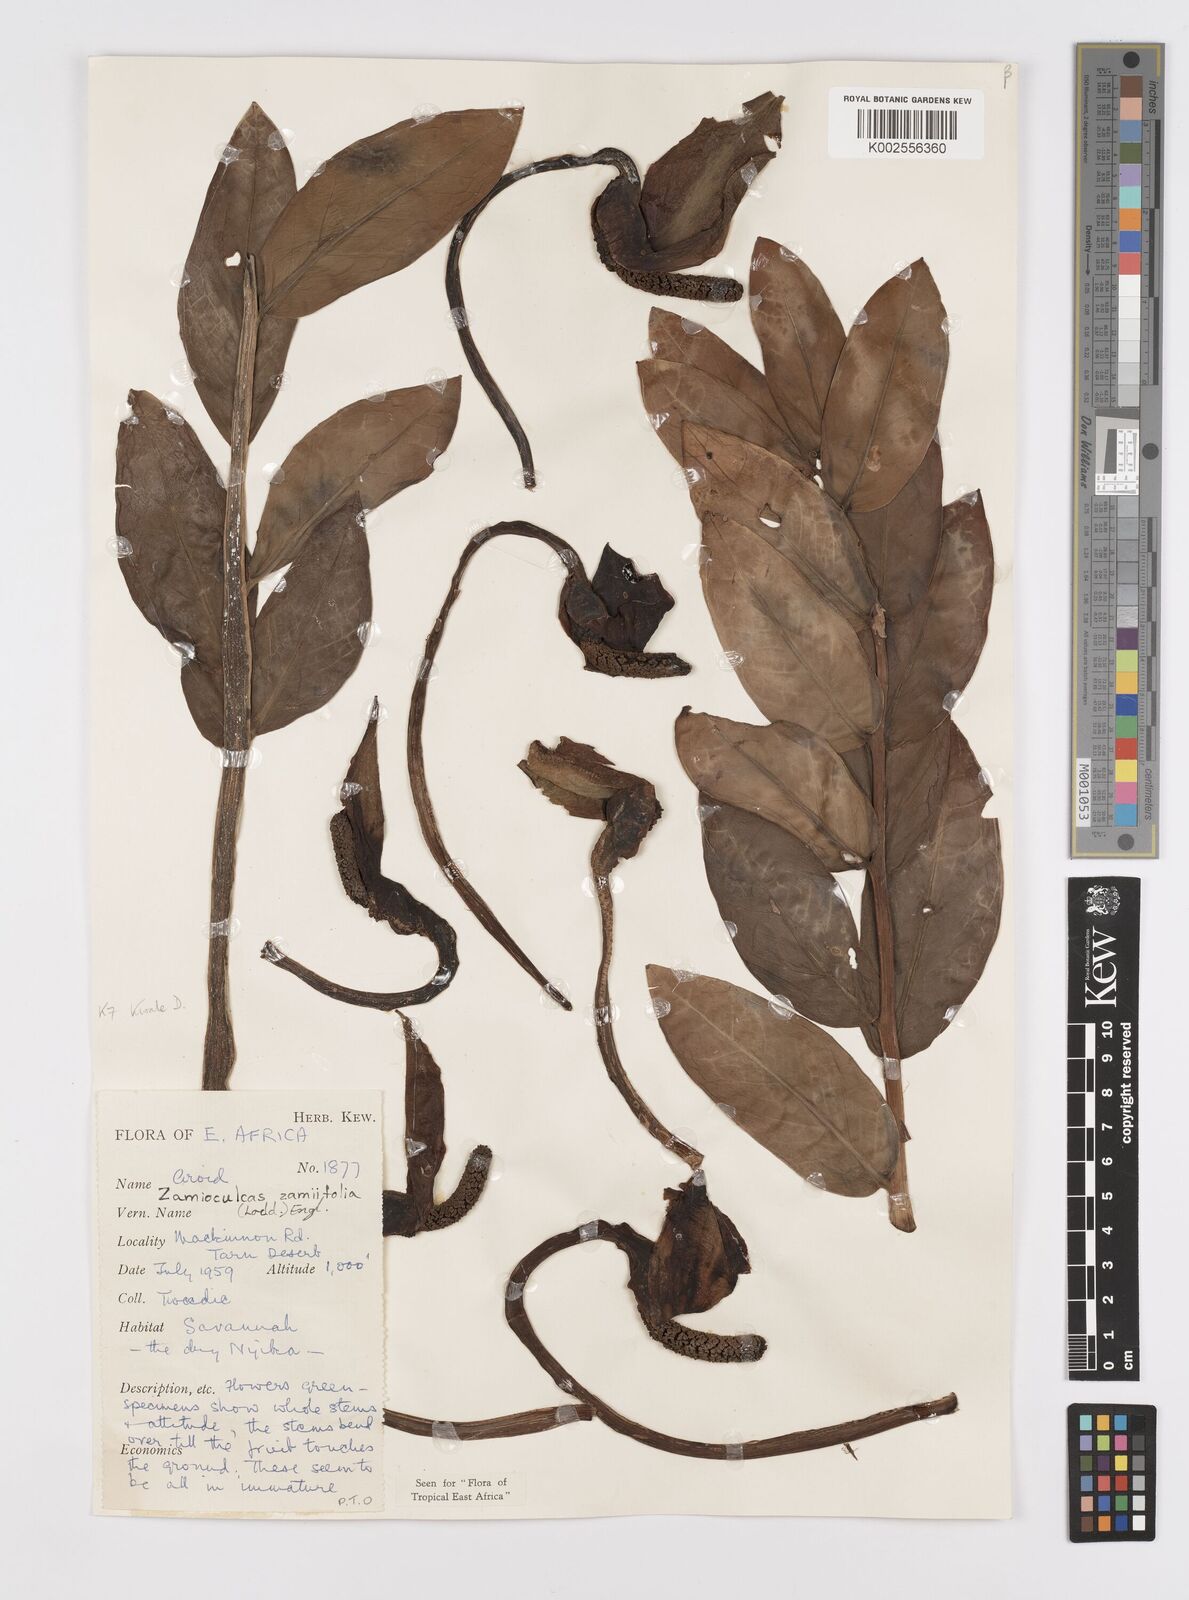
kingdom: Plantae
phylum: Tracheophyta
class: Liliopsida
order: Alismatales
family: Araceae
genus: Zamioculcas
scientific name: Zamioculcas zamiifolia
